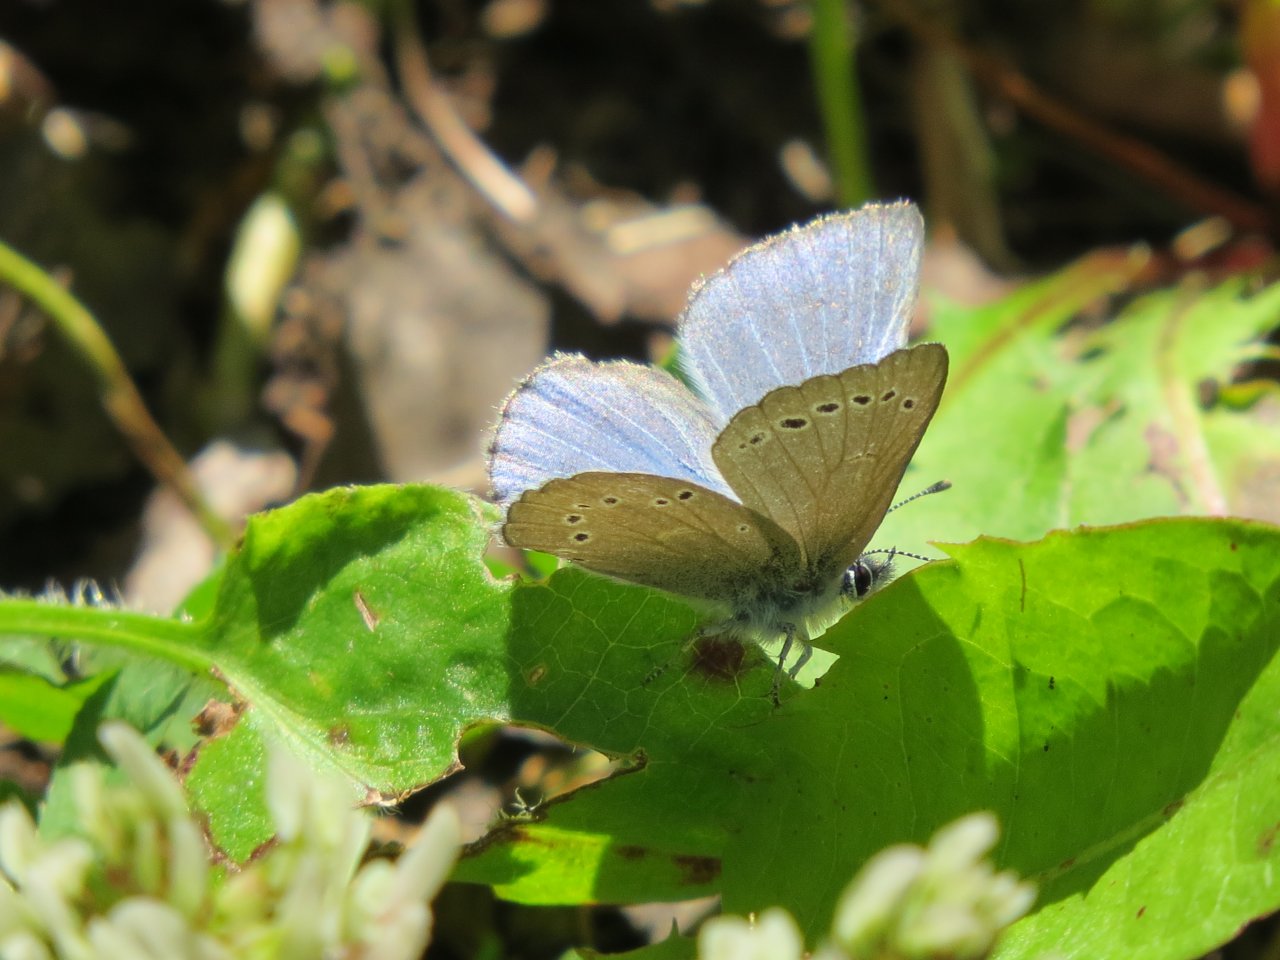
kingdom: Animalia
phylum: Arthropoda
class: Insecta
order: Lepidoptera
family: Lycaenidae
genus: Glaucopsyche
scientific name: Glaucopsyche lygdamus
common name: Silvery Blue
